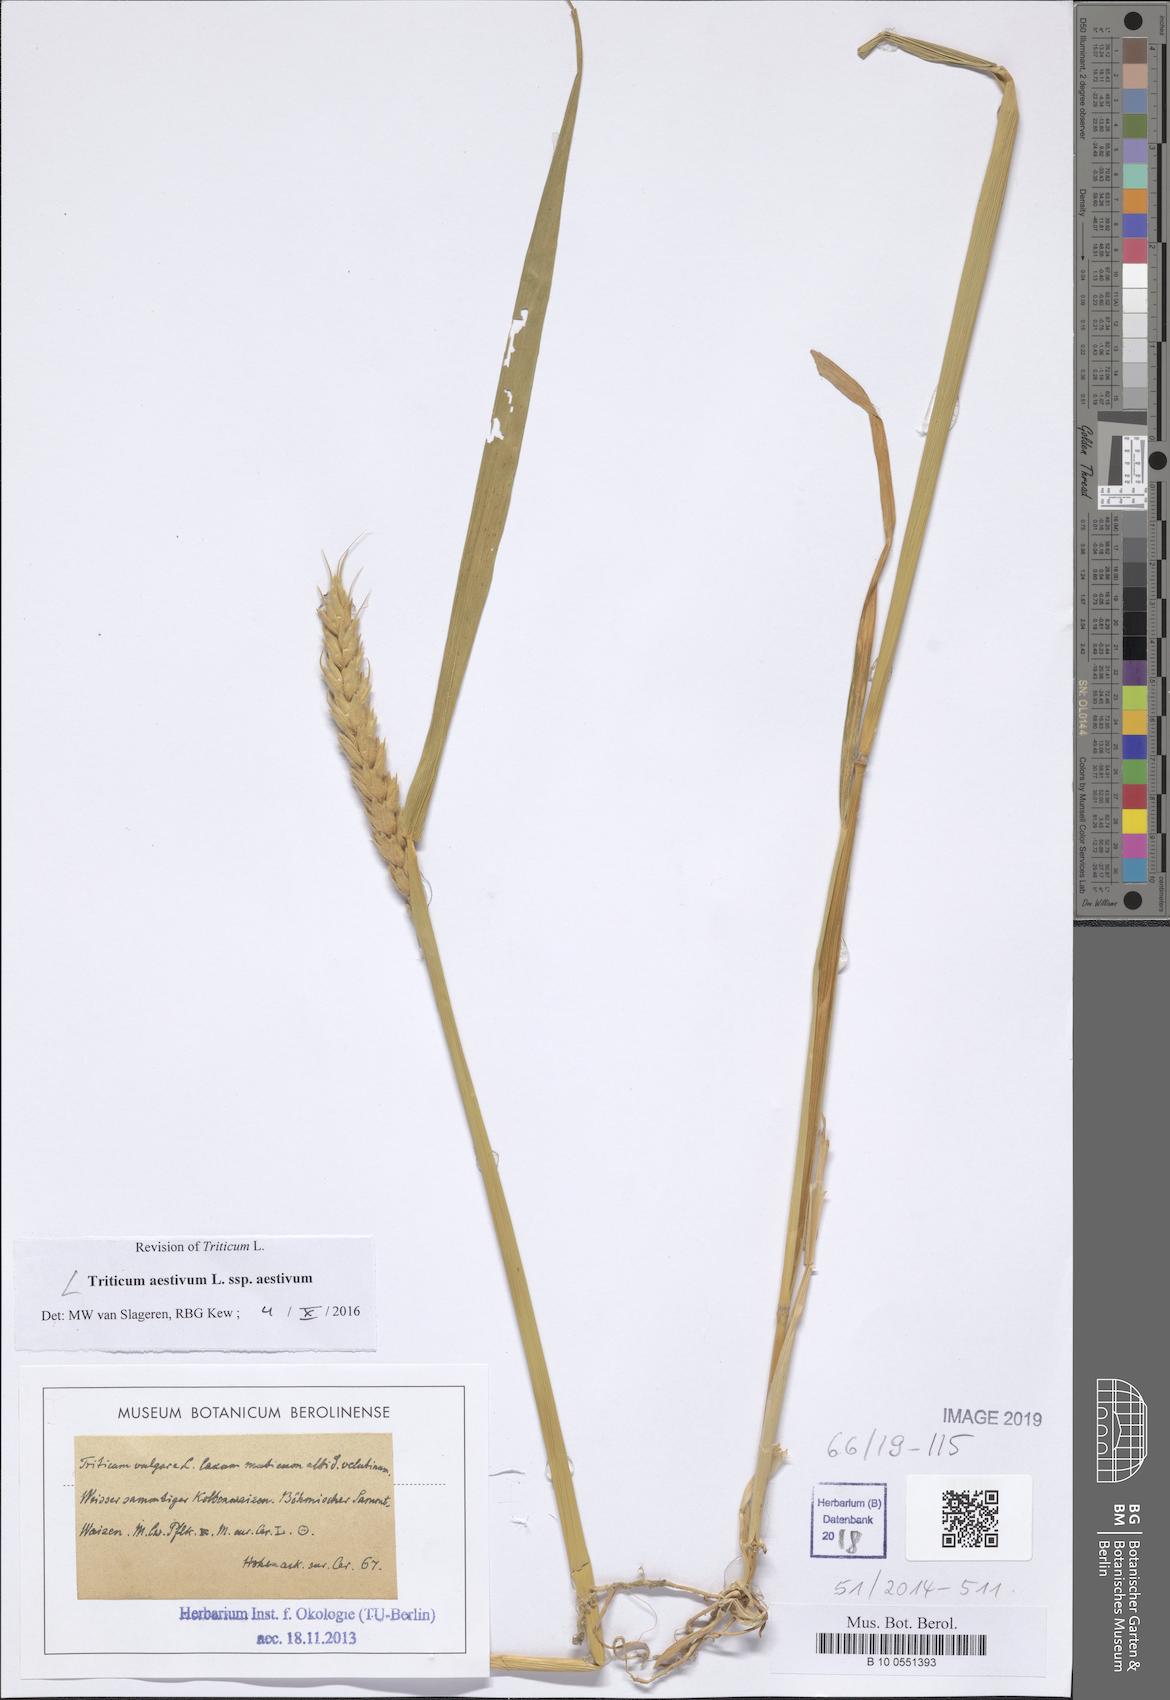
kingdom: Plantae
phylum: Tracheophyta
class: Liliopsida
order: Poales
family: Poaceae
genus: Triticum
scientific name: Triticum aestivum
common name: Common wheat
